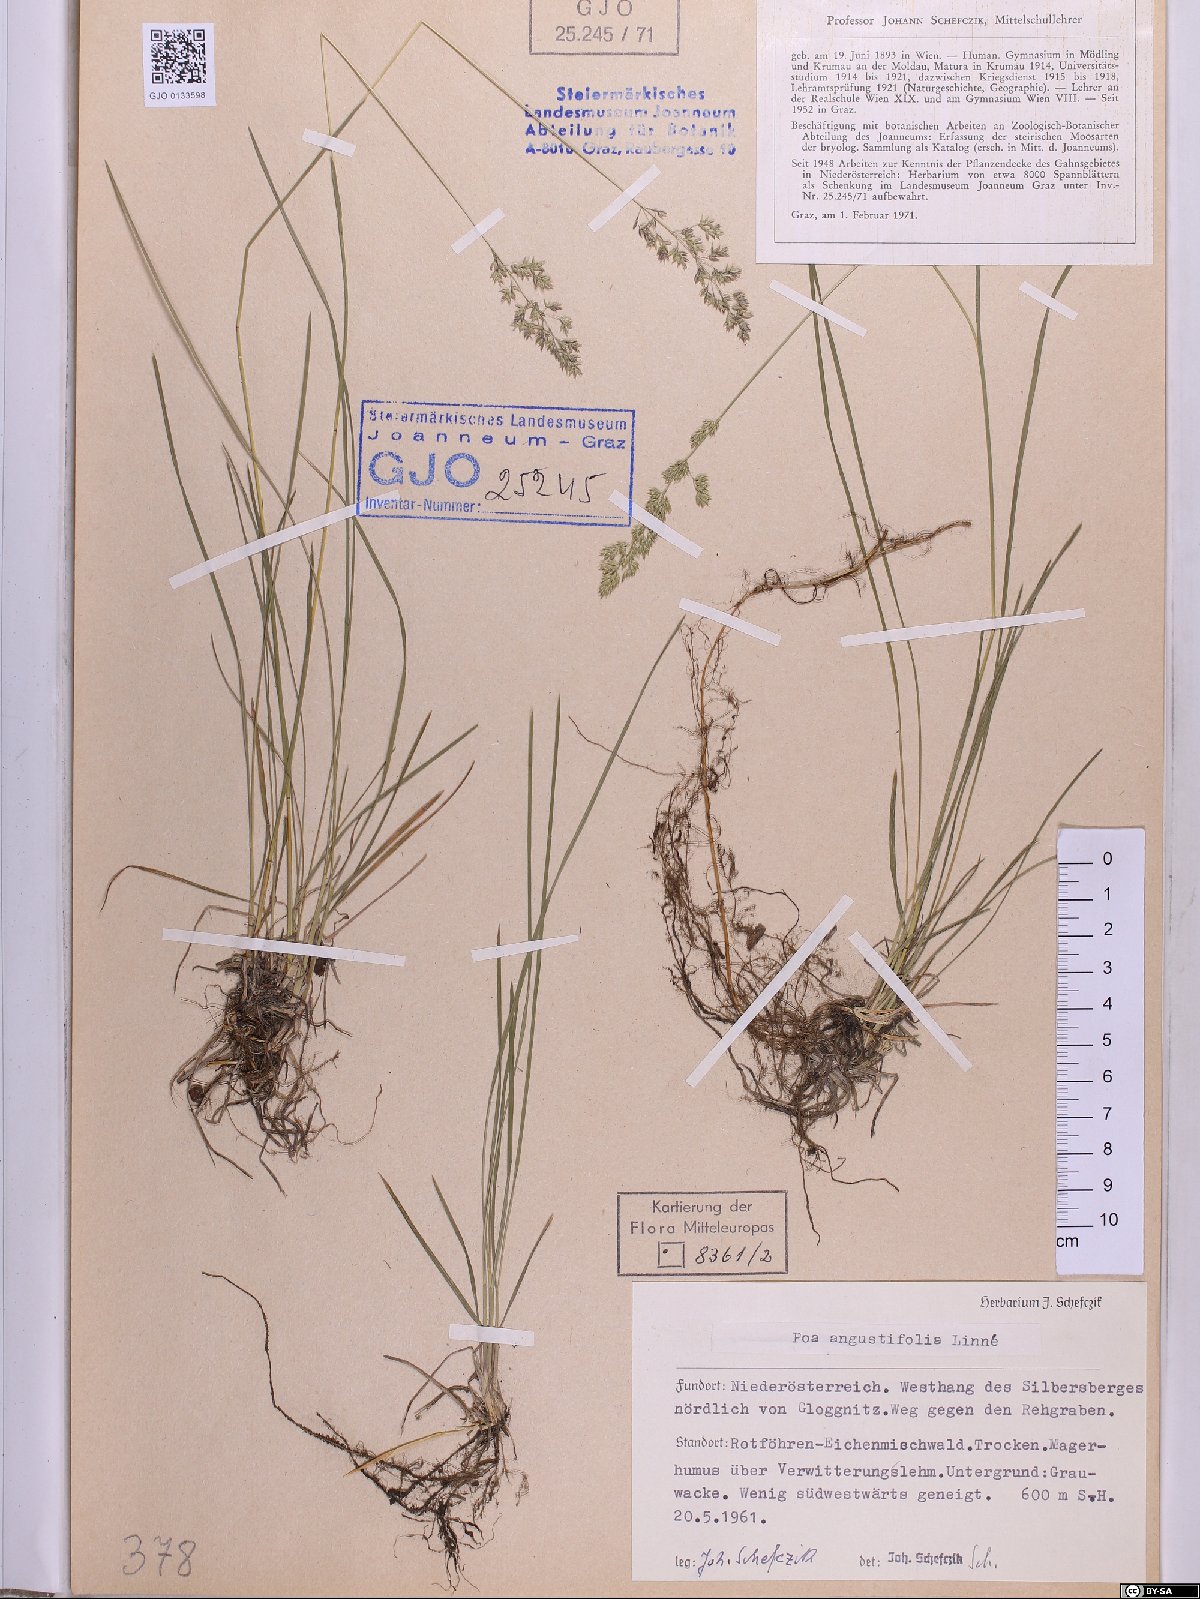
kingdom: Plantae
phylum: Tracheophyta
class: Liliopsida
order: Poales
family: Poaceae
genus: Poa
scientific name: Poa angustifolia
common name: Narrow-leaved meadow-grass
